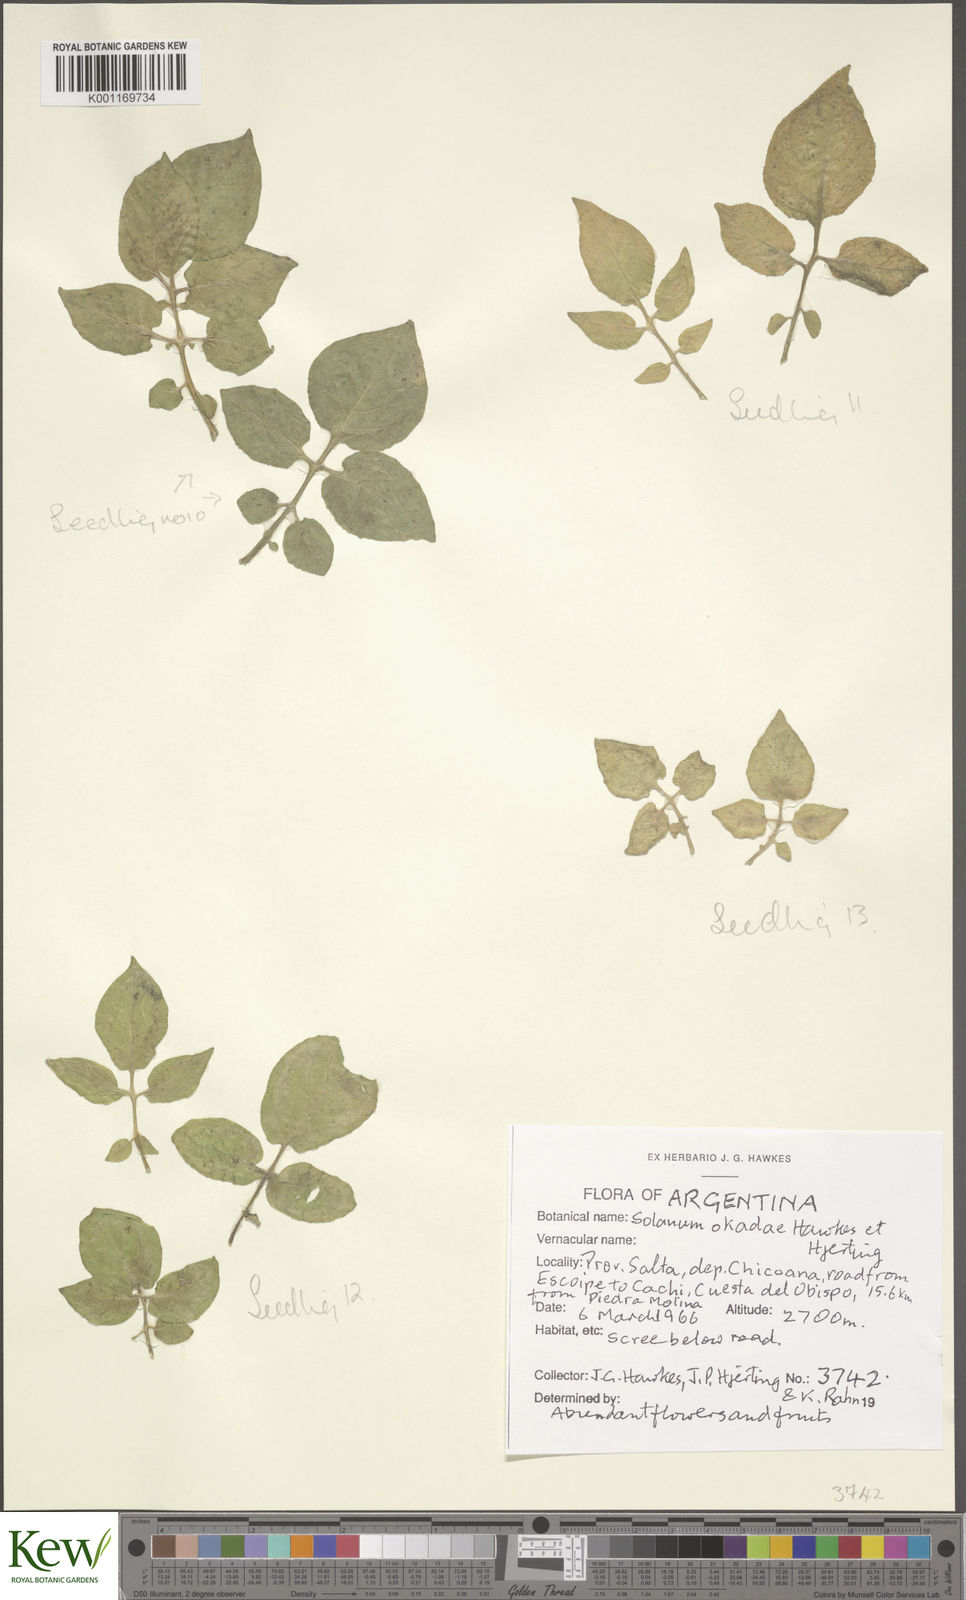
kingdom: Plantae
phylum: Tracheophyta
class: Magnoliopsida
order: Solanales
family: Solanaceae
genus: Solanum
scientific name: Solanum okadae
